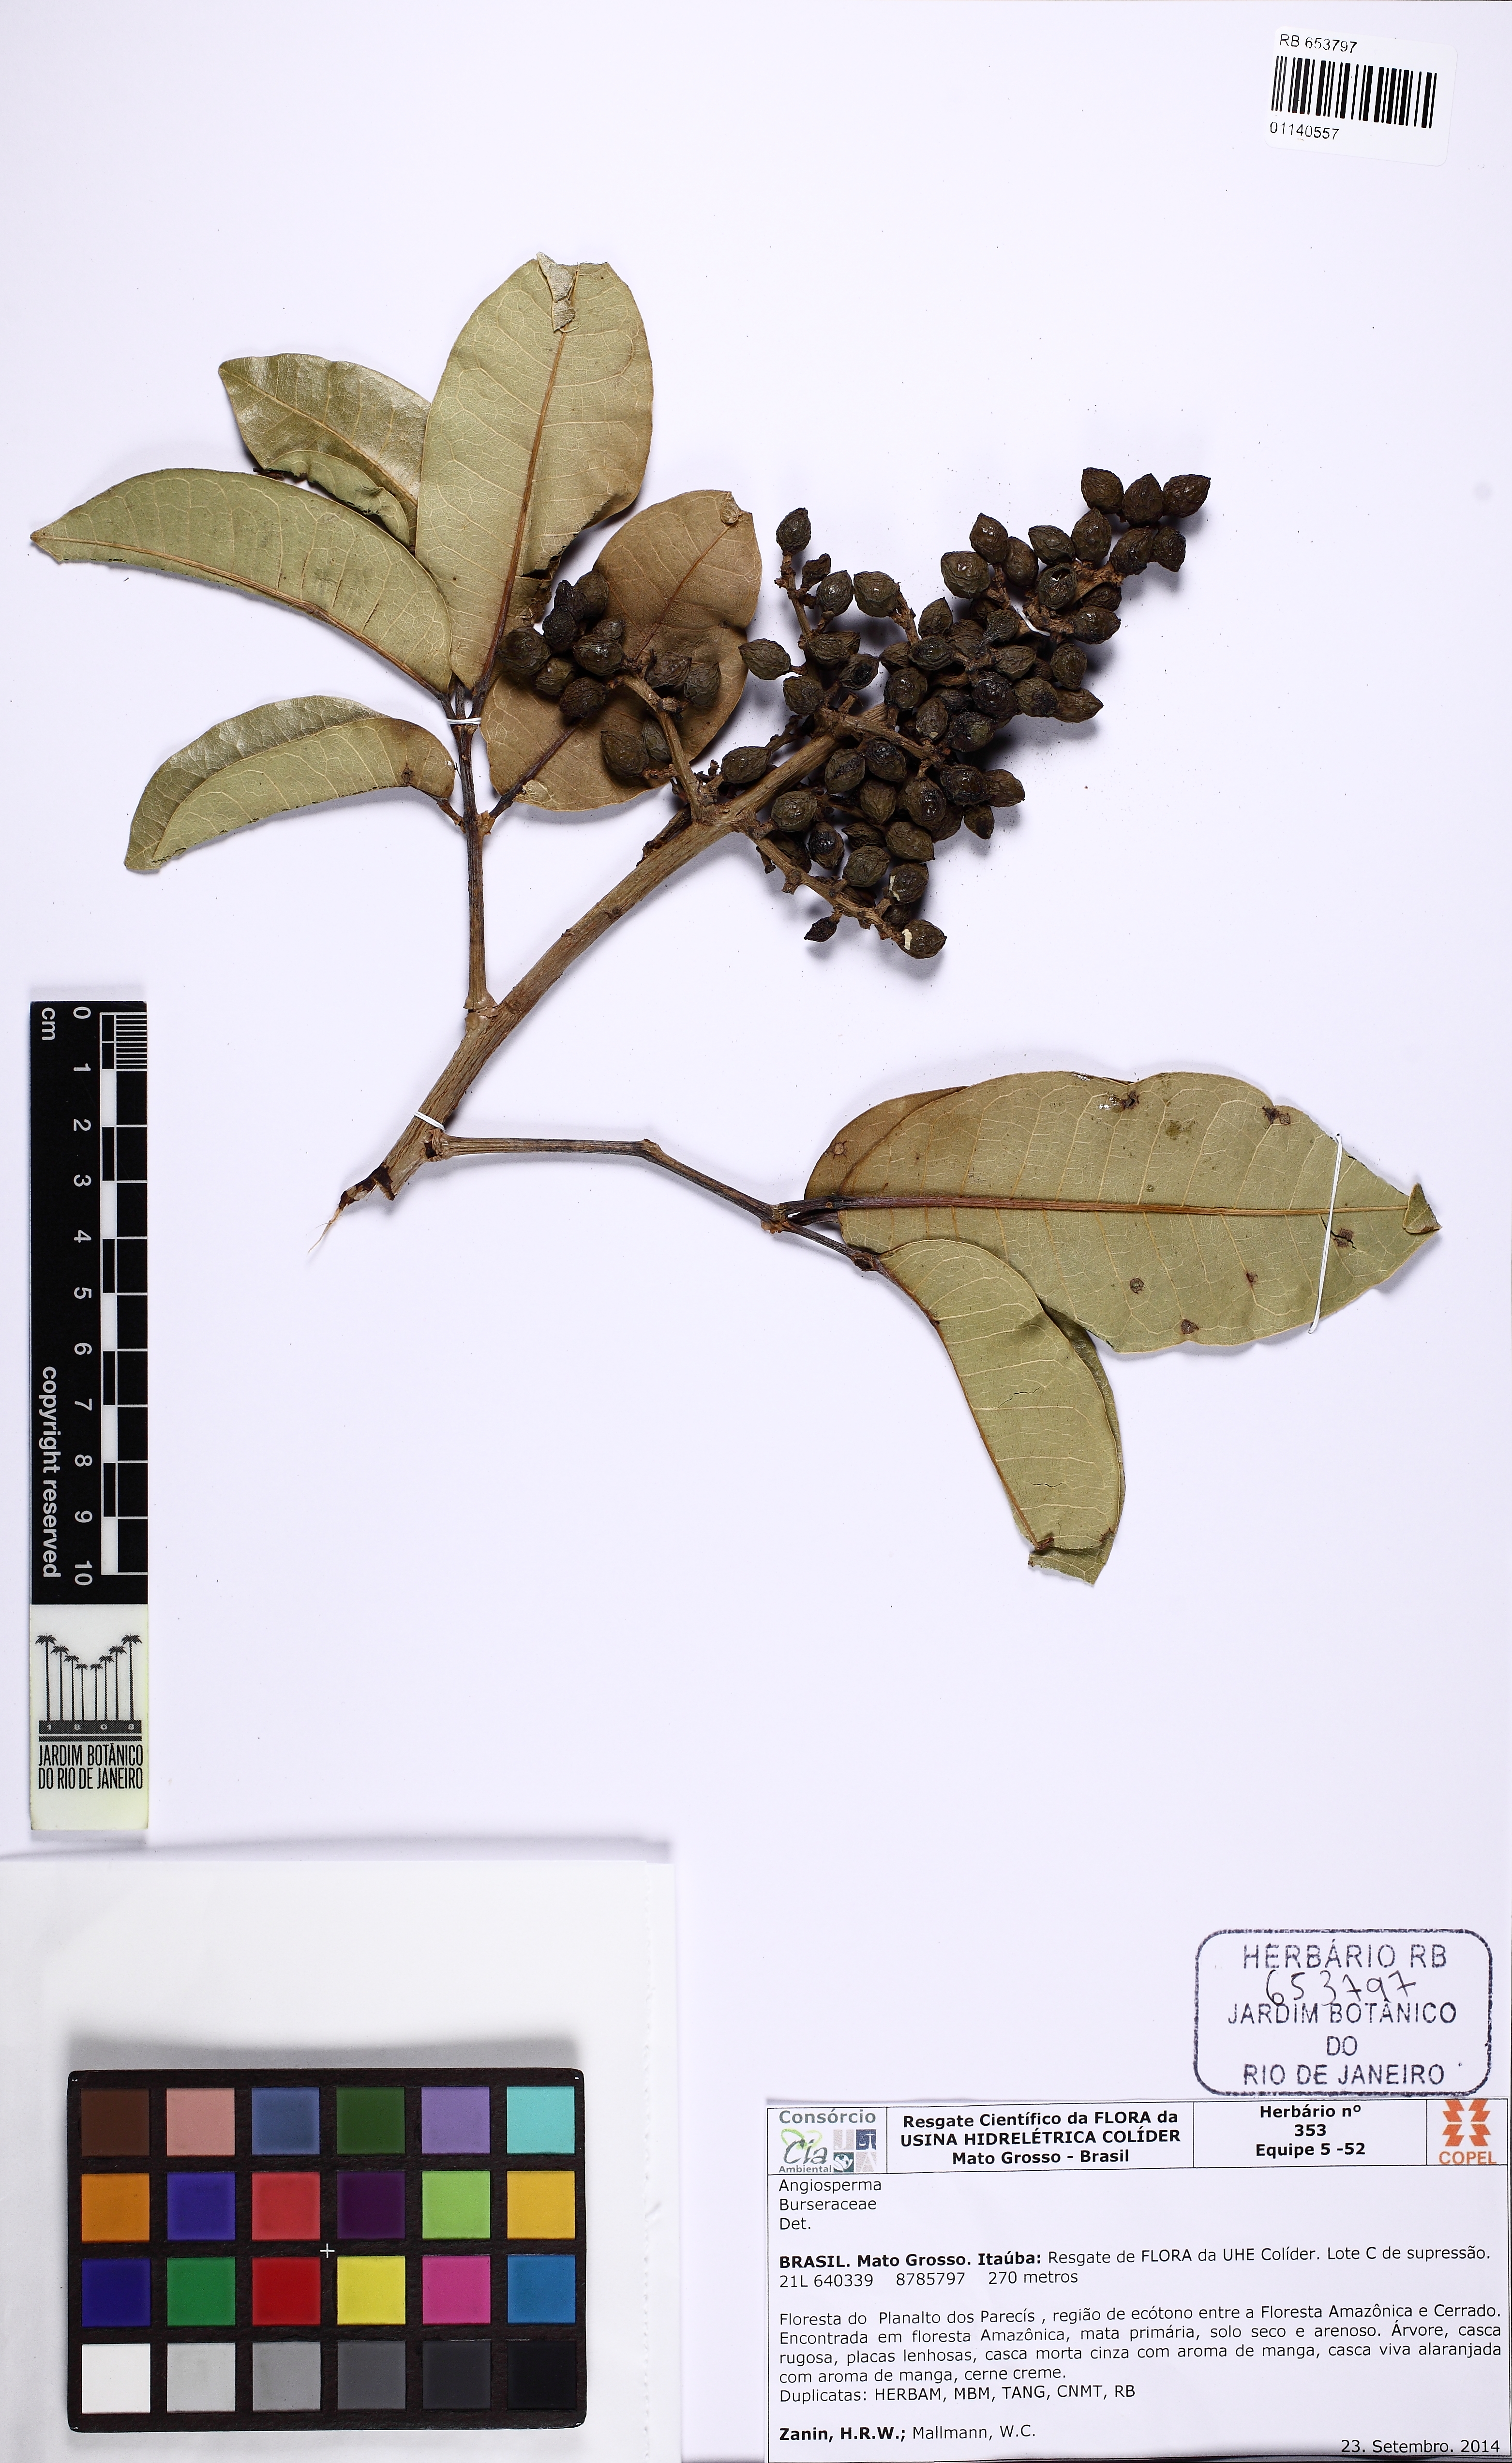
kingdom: Plantae
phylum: Tracheophyta
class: Magnoliopsida
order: Sapindales
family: Burseraceae
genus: Trattinnickia
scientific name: Trattinnickia burserifolia
